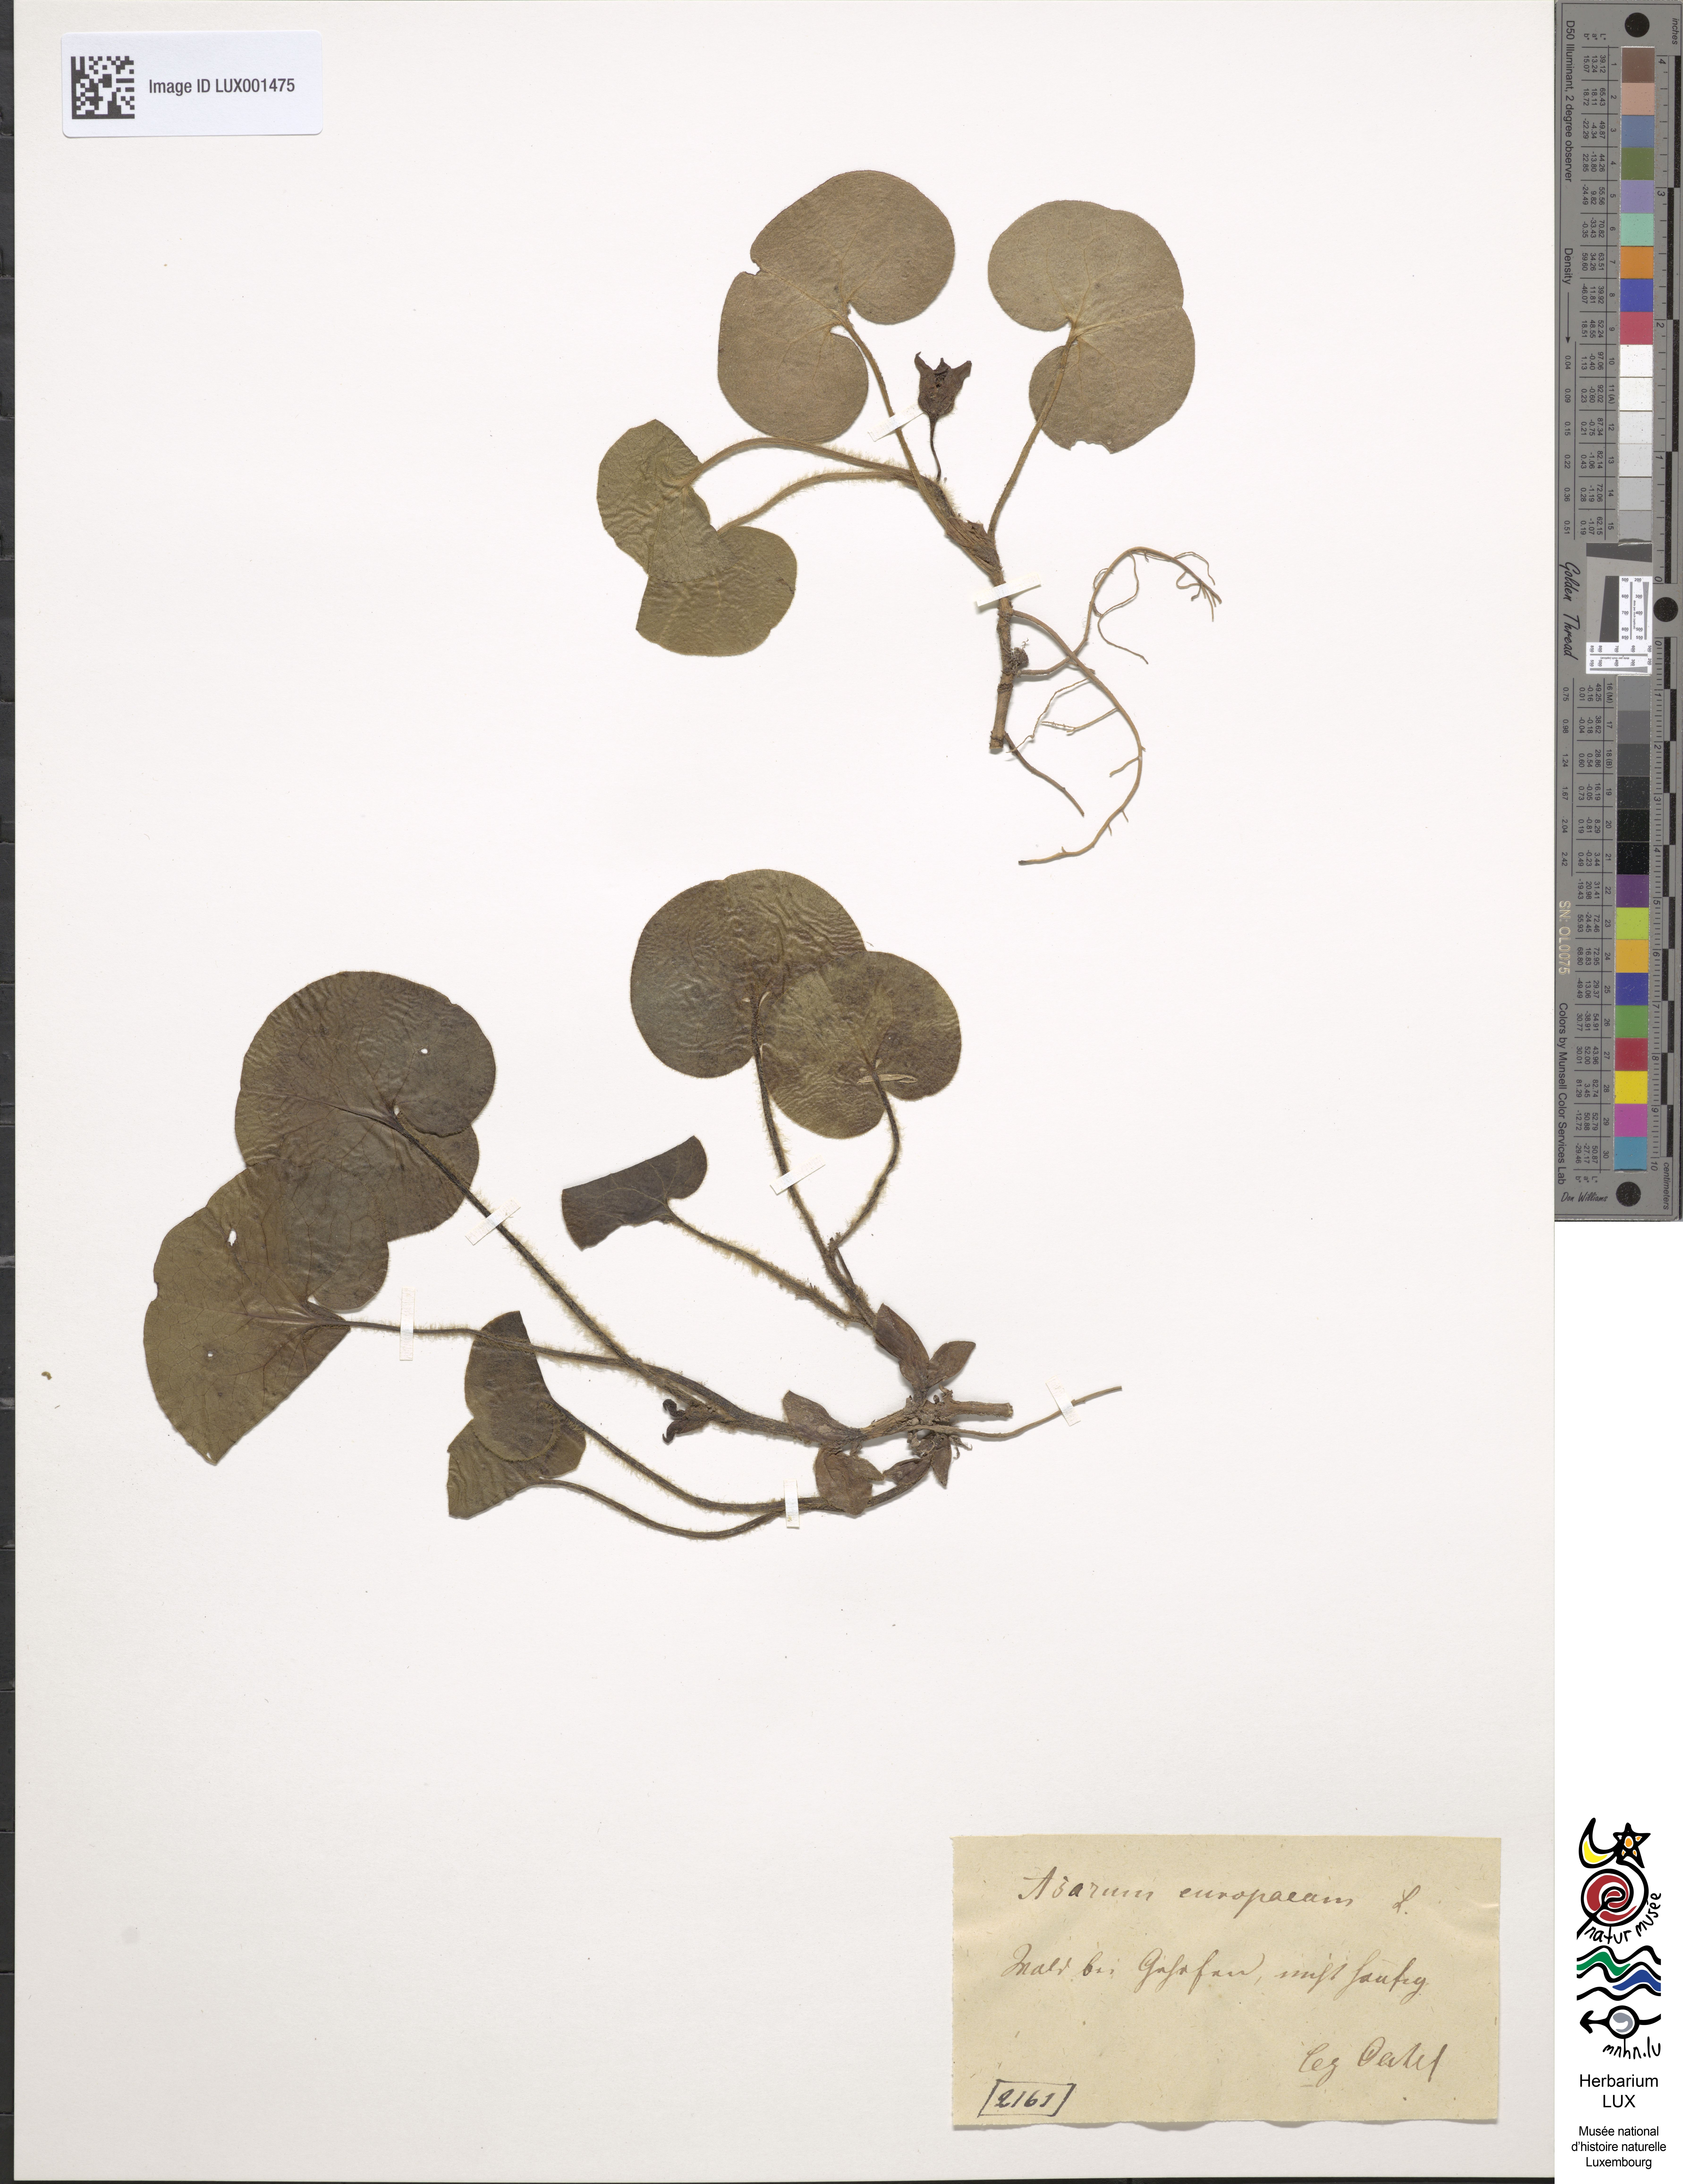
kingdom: Plantae
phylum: Tracheophyta
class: Magnoliopsida
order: Piperales
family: Aristolochiaceae
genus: Asarum
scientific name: Asarum europaeum
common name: Asarabacca
